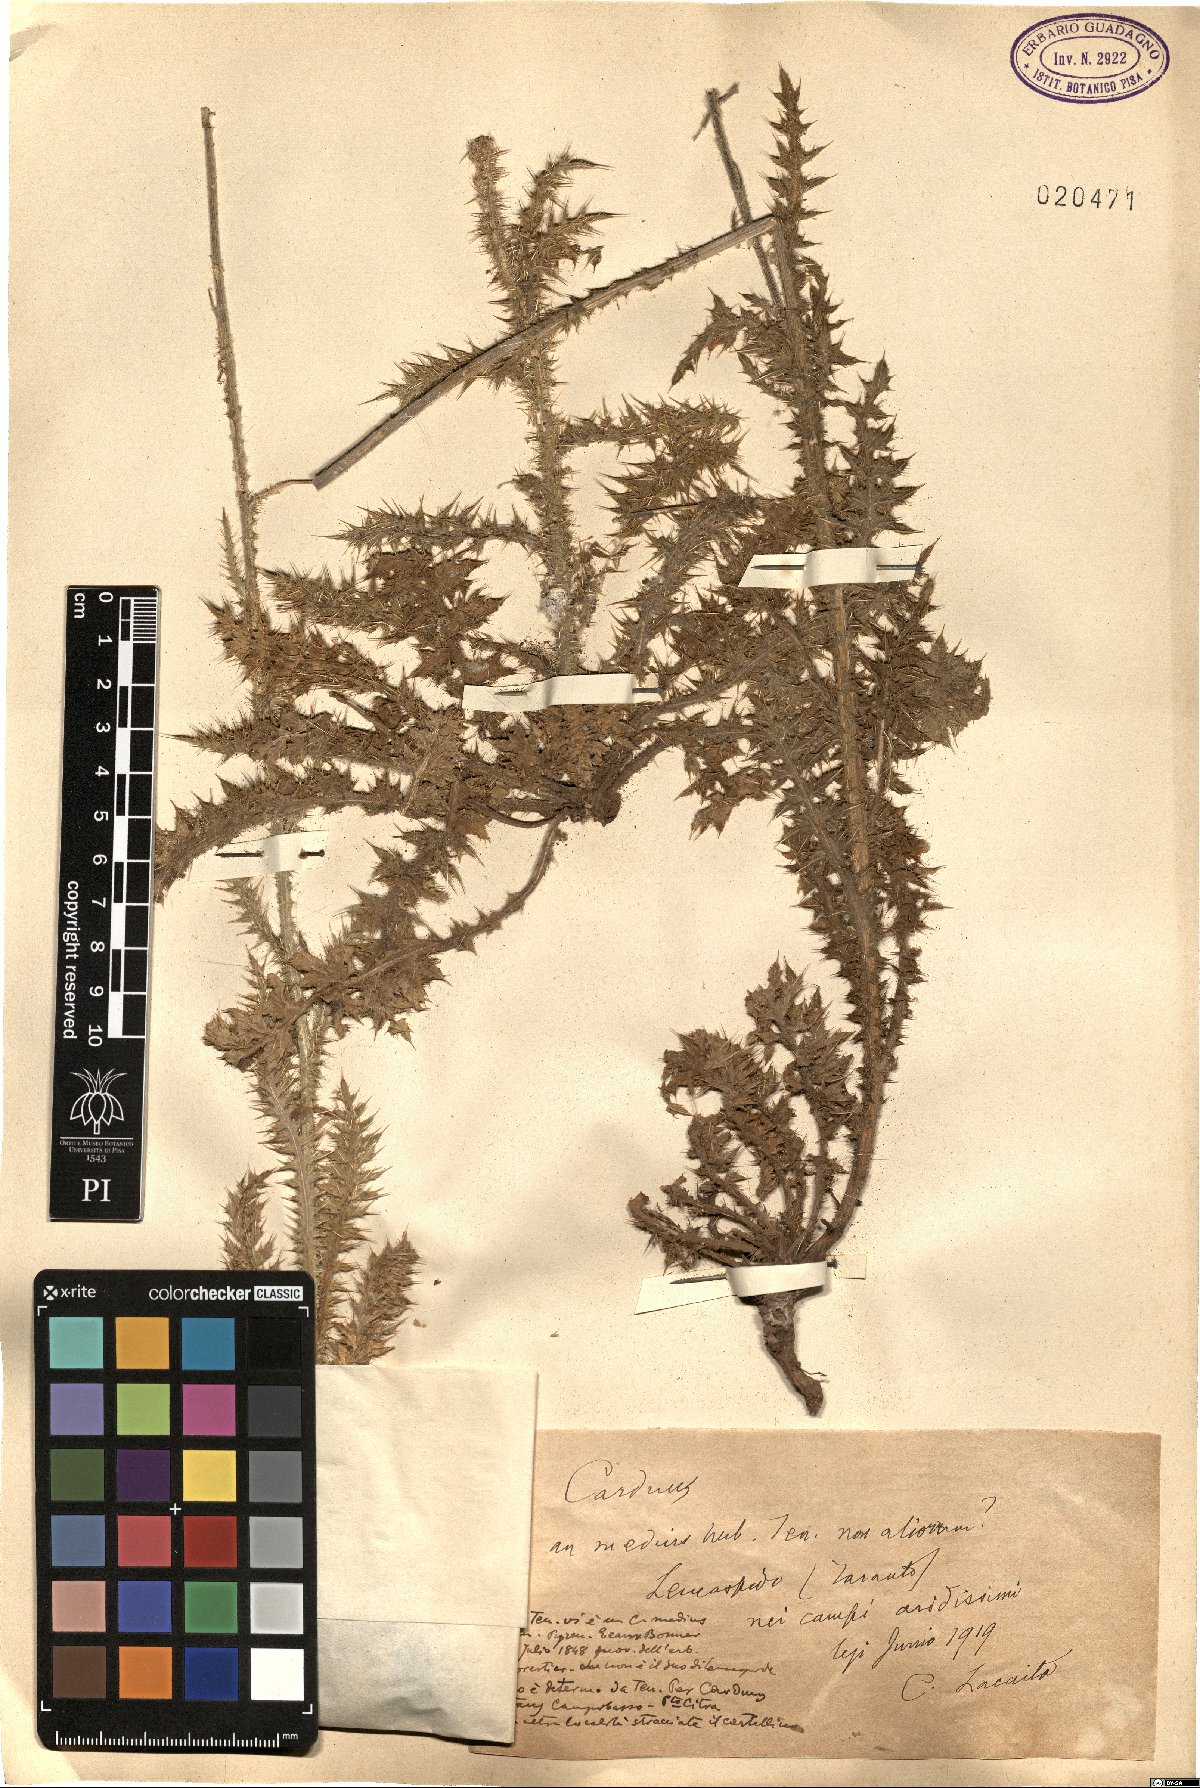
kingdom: Plantae
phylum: Tracheophyta
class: Magnoliopsida
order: Asterales
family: Asteraceae
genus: Carduus
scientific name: Carduus defloratus
